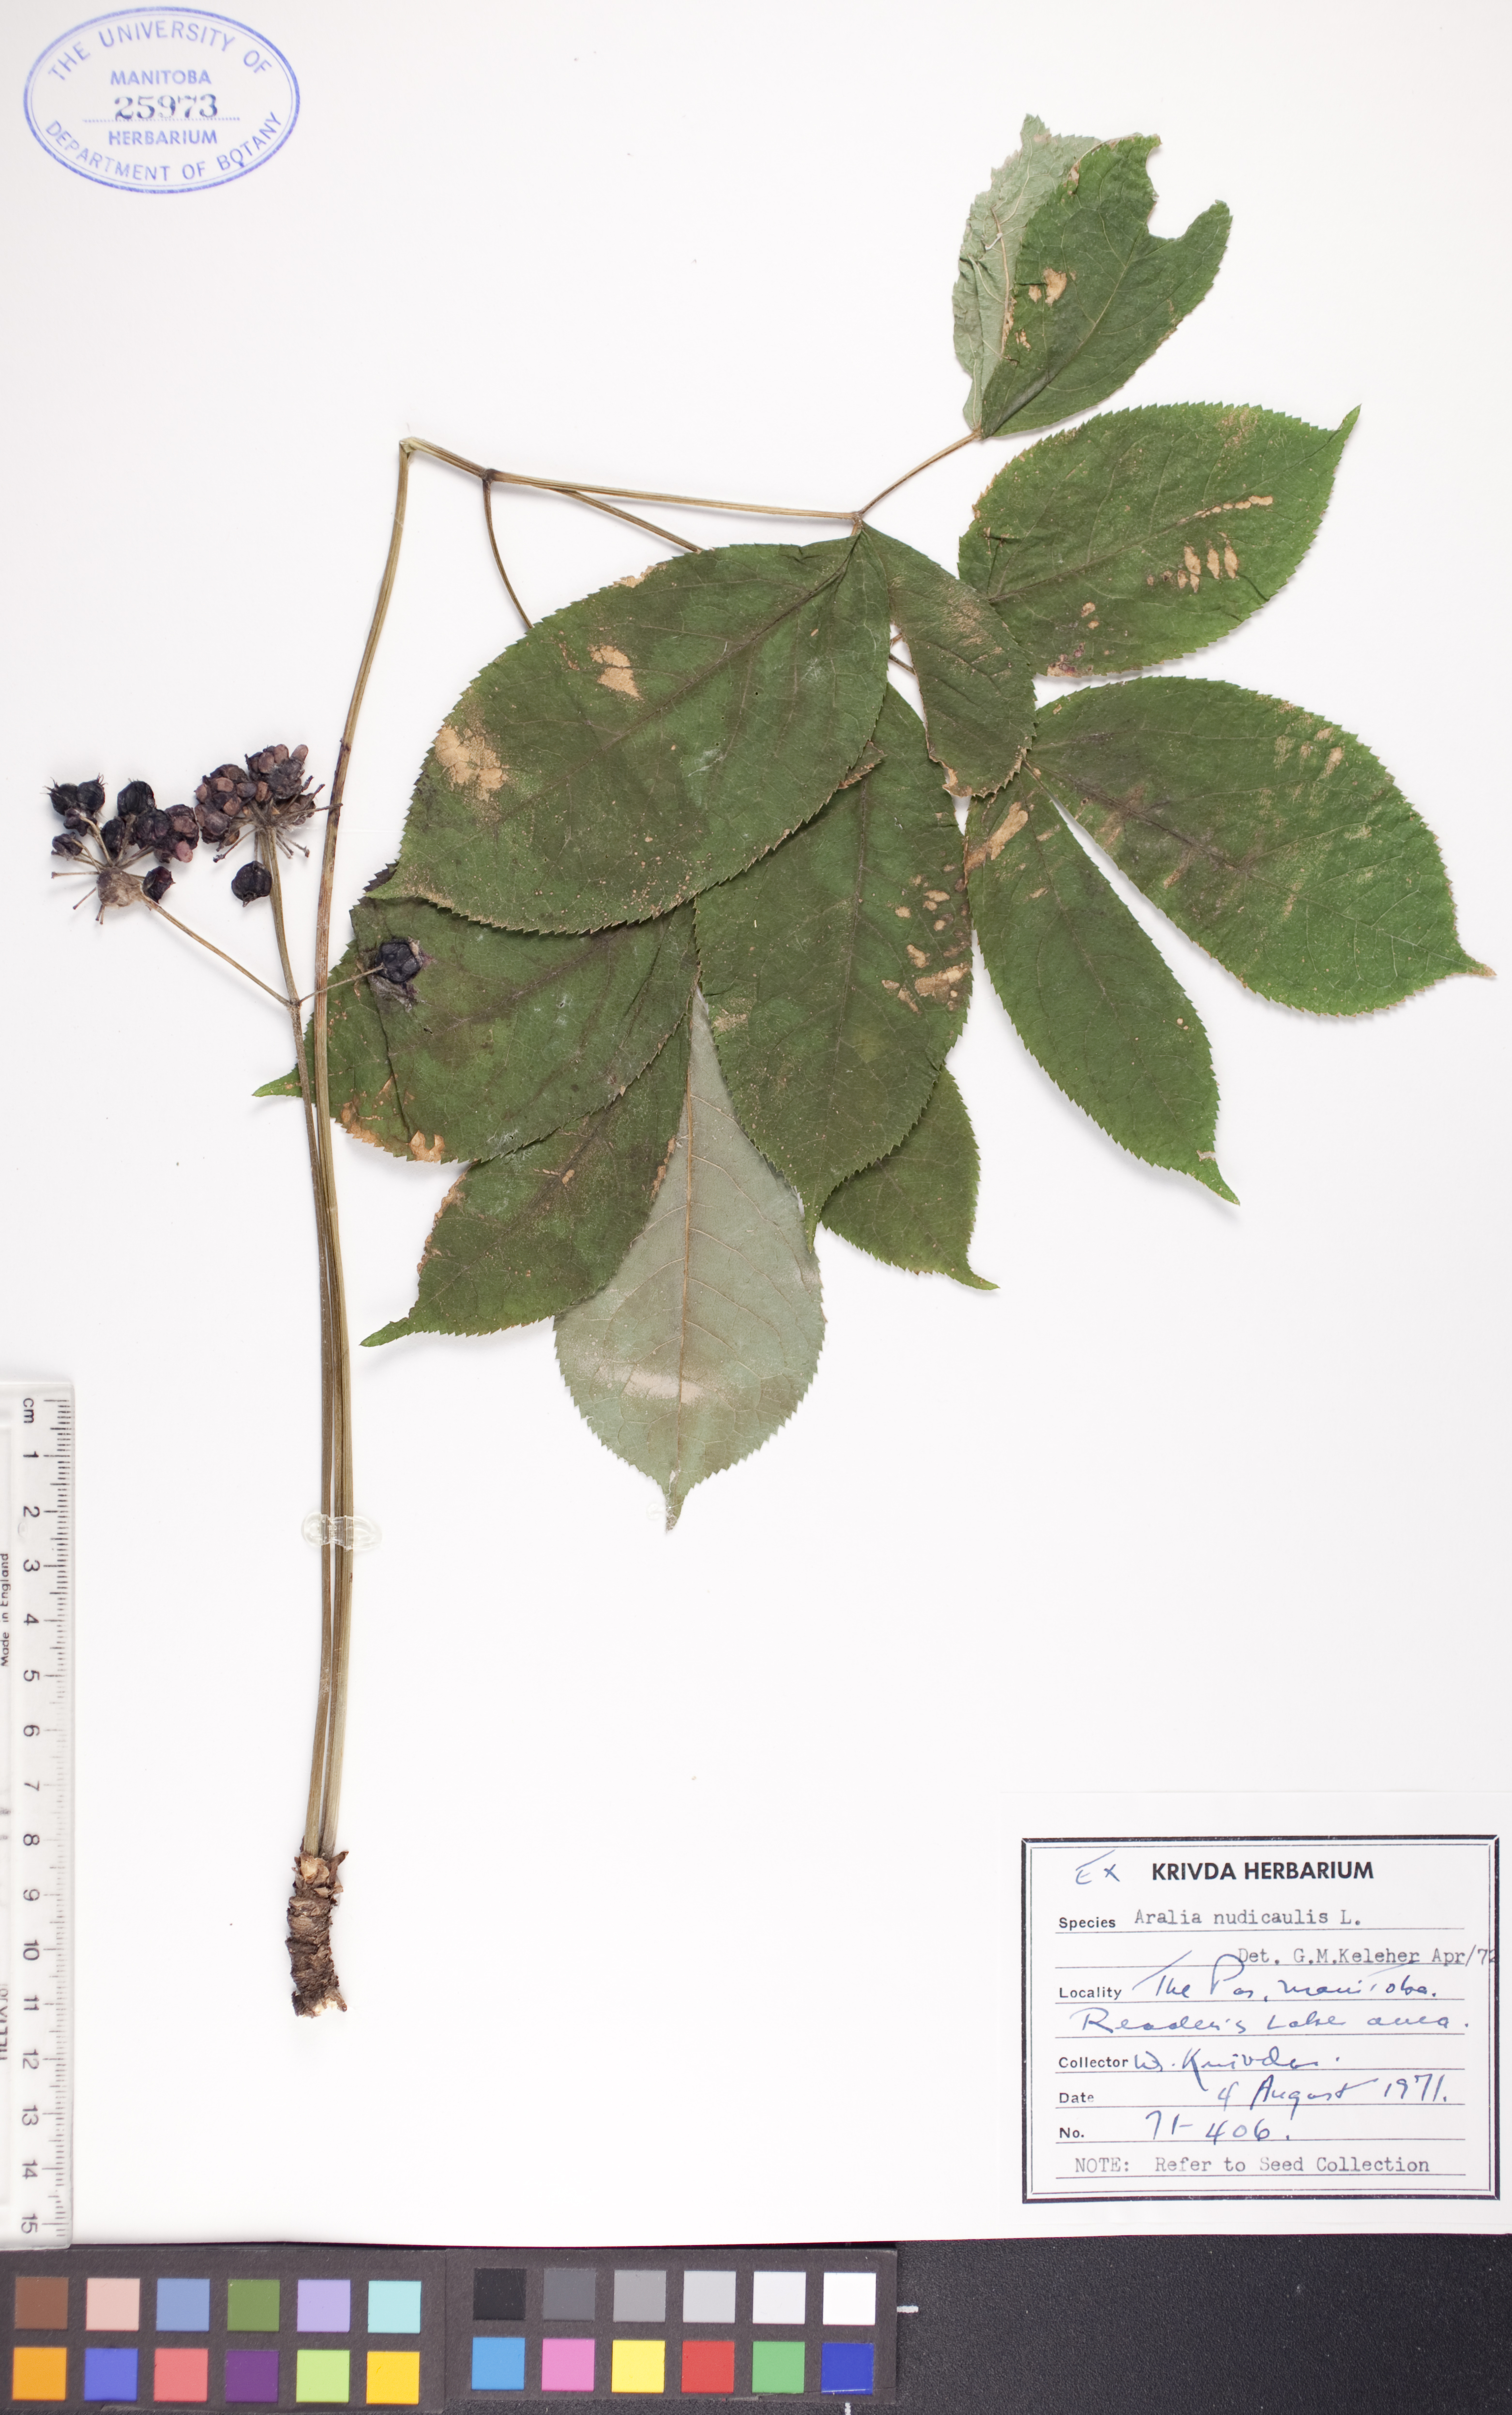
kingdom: Plantae
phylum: Tracheophyta
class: Magnoliopsida
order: Apiales
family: Araliaceae
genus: Aralia
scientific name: Aralia nudicaulis
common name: Wild sarsaparilla
